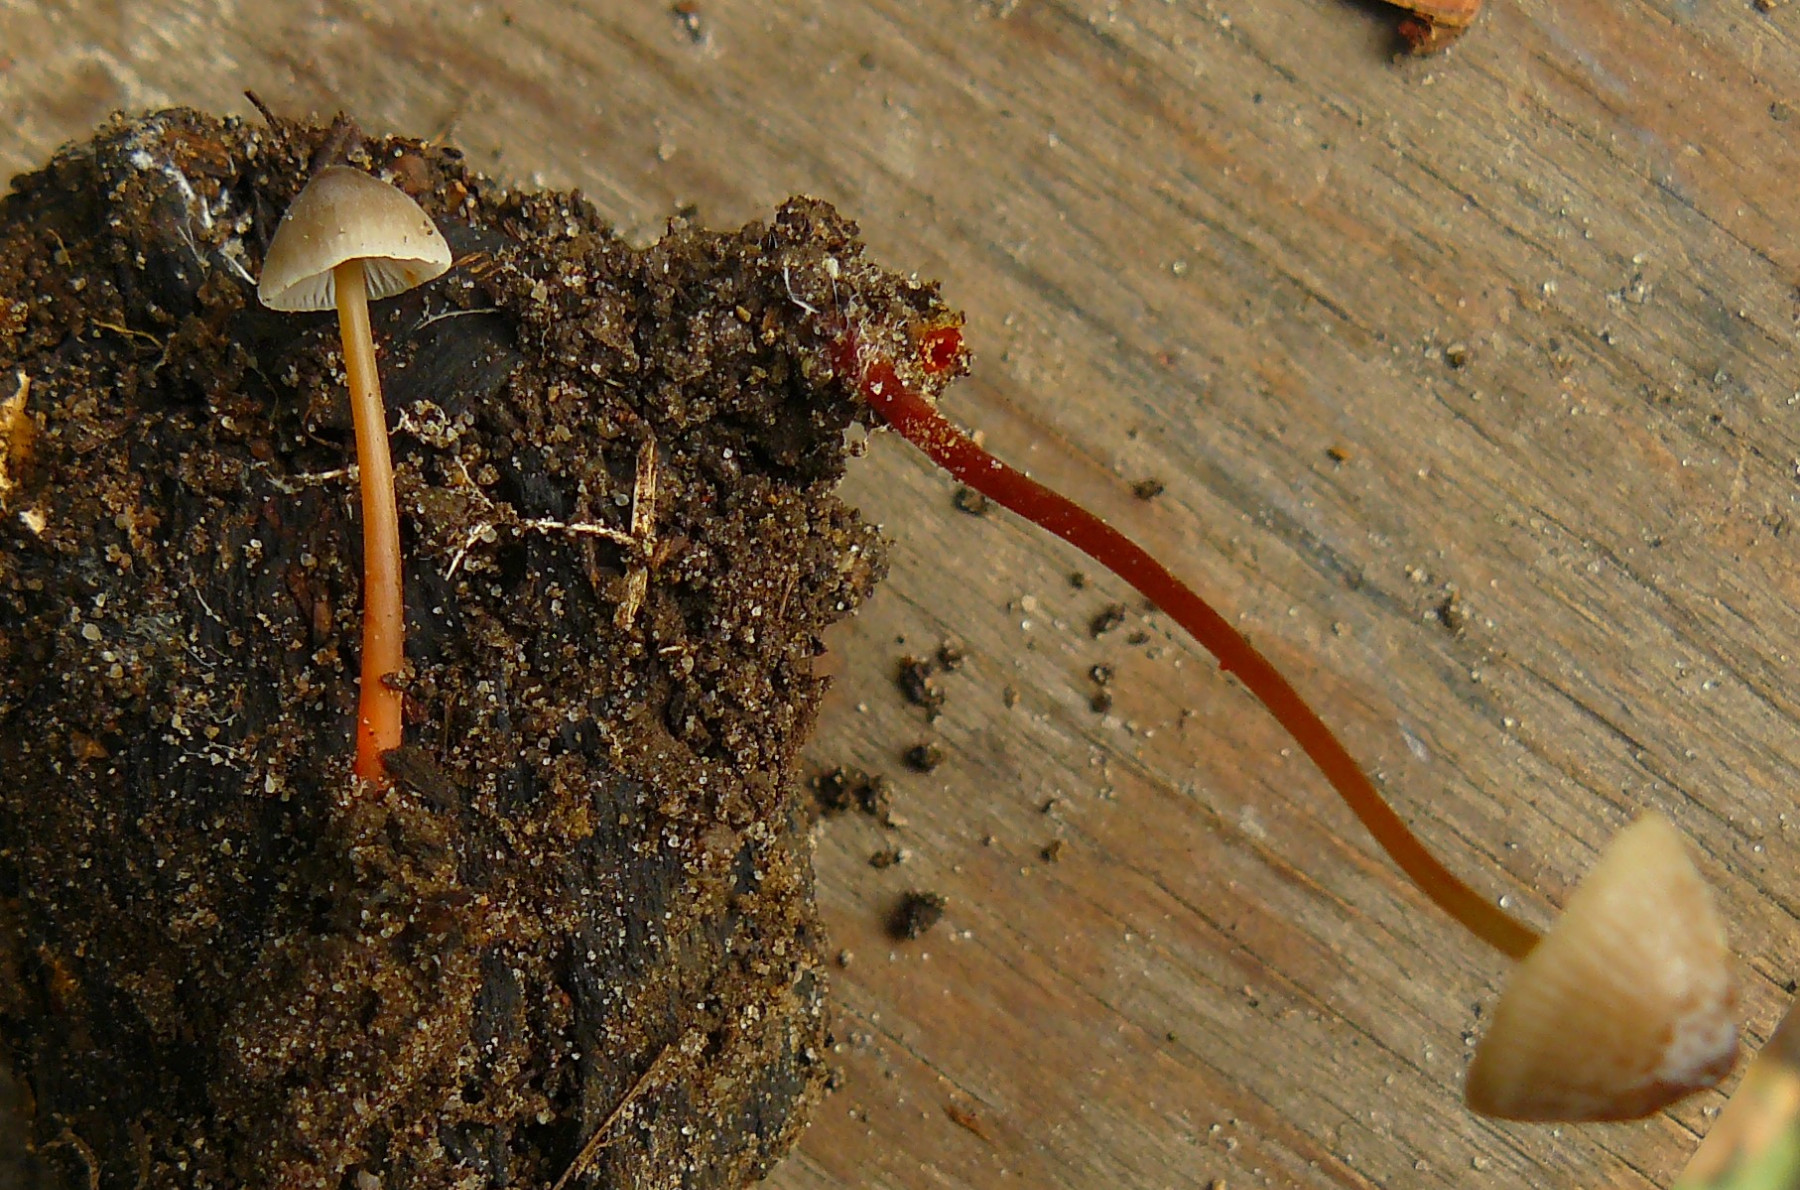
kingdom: Fungi
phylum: Basidiomycota
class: Agaricomycetes
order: Agaricales
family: Mycenaceae
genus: Mycena
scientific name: Mycena crocata
